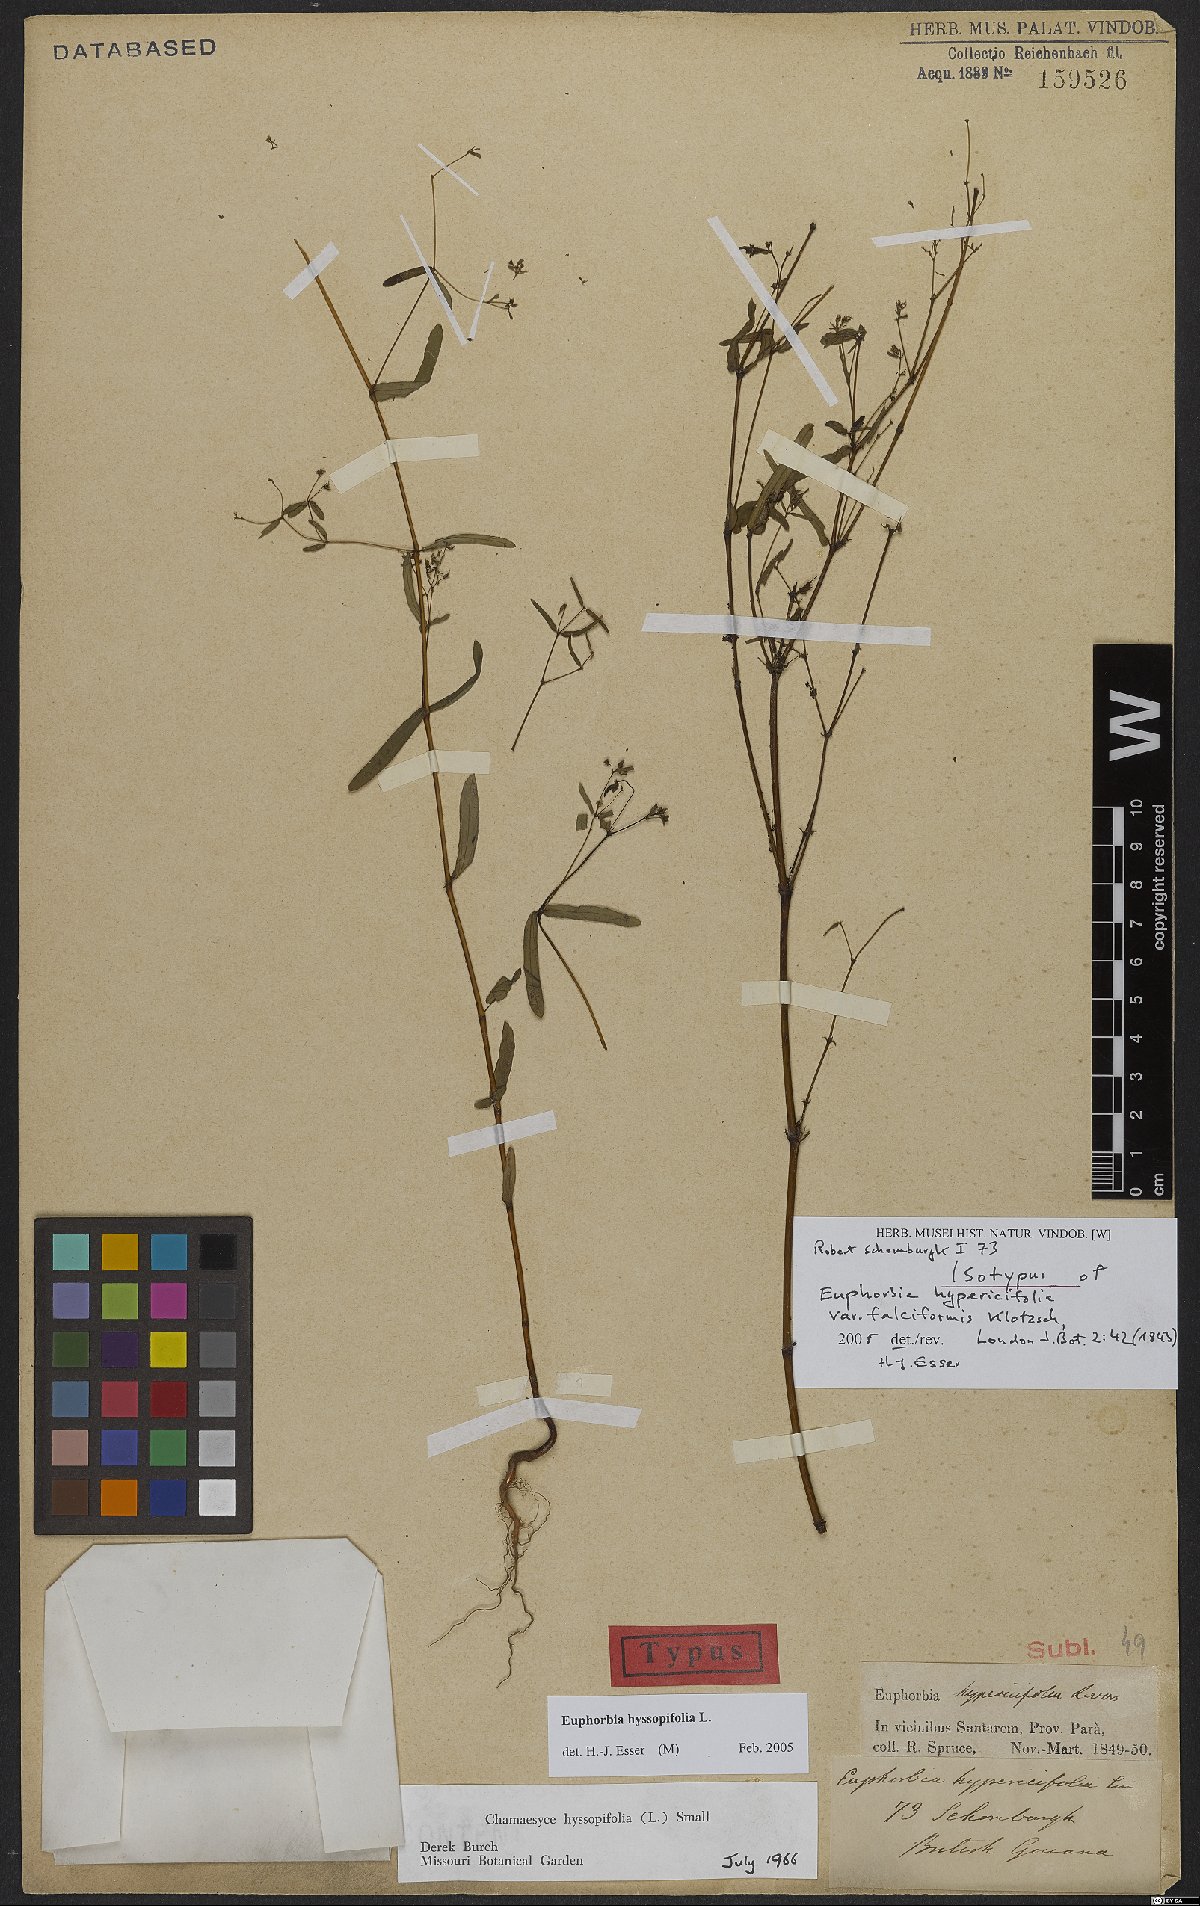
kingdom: Plantae
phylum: Tracheophyta
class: Magnoliopsida
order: Malpighiales
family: Euphorbiaceae
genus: Euphorbia
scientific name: Euphorbia hyssopifolia
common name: Hyssopleaf sandmat
